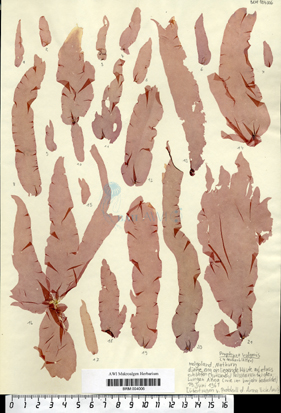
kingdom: Plantae
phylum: Rhodophyta
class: Bangiophyceae
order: Bangiales
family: Bangiaceae
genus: Porphyra
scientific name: Porphyra purpurea
